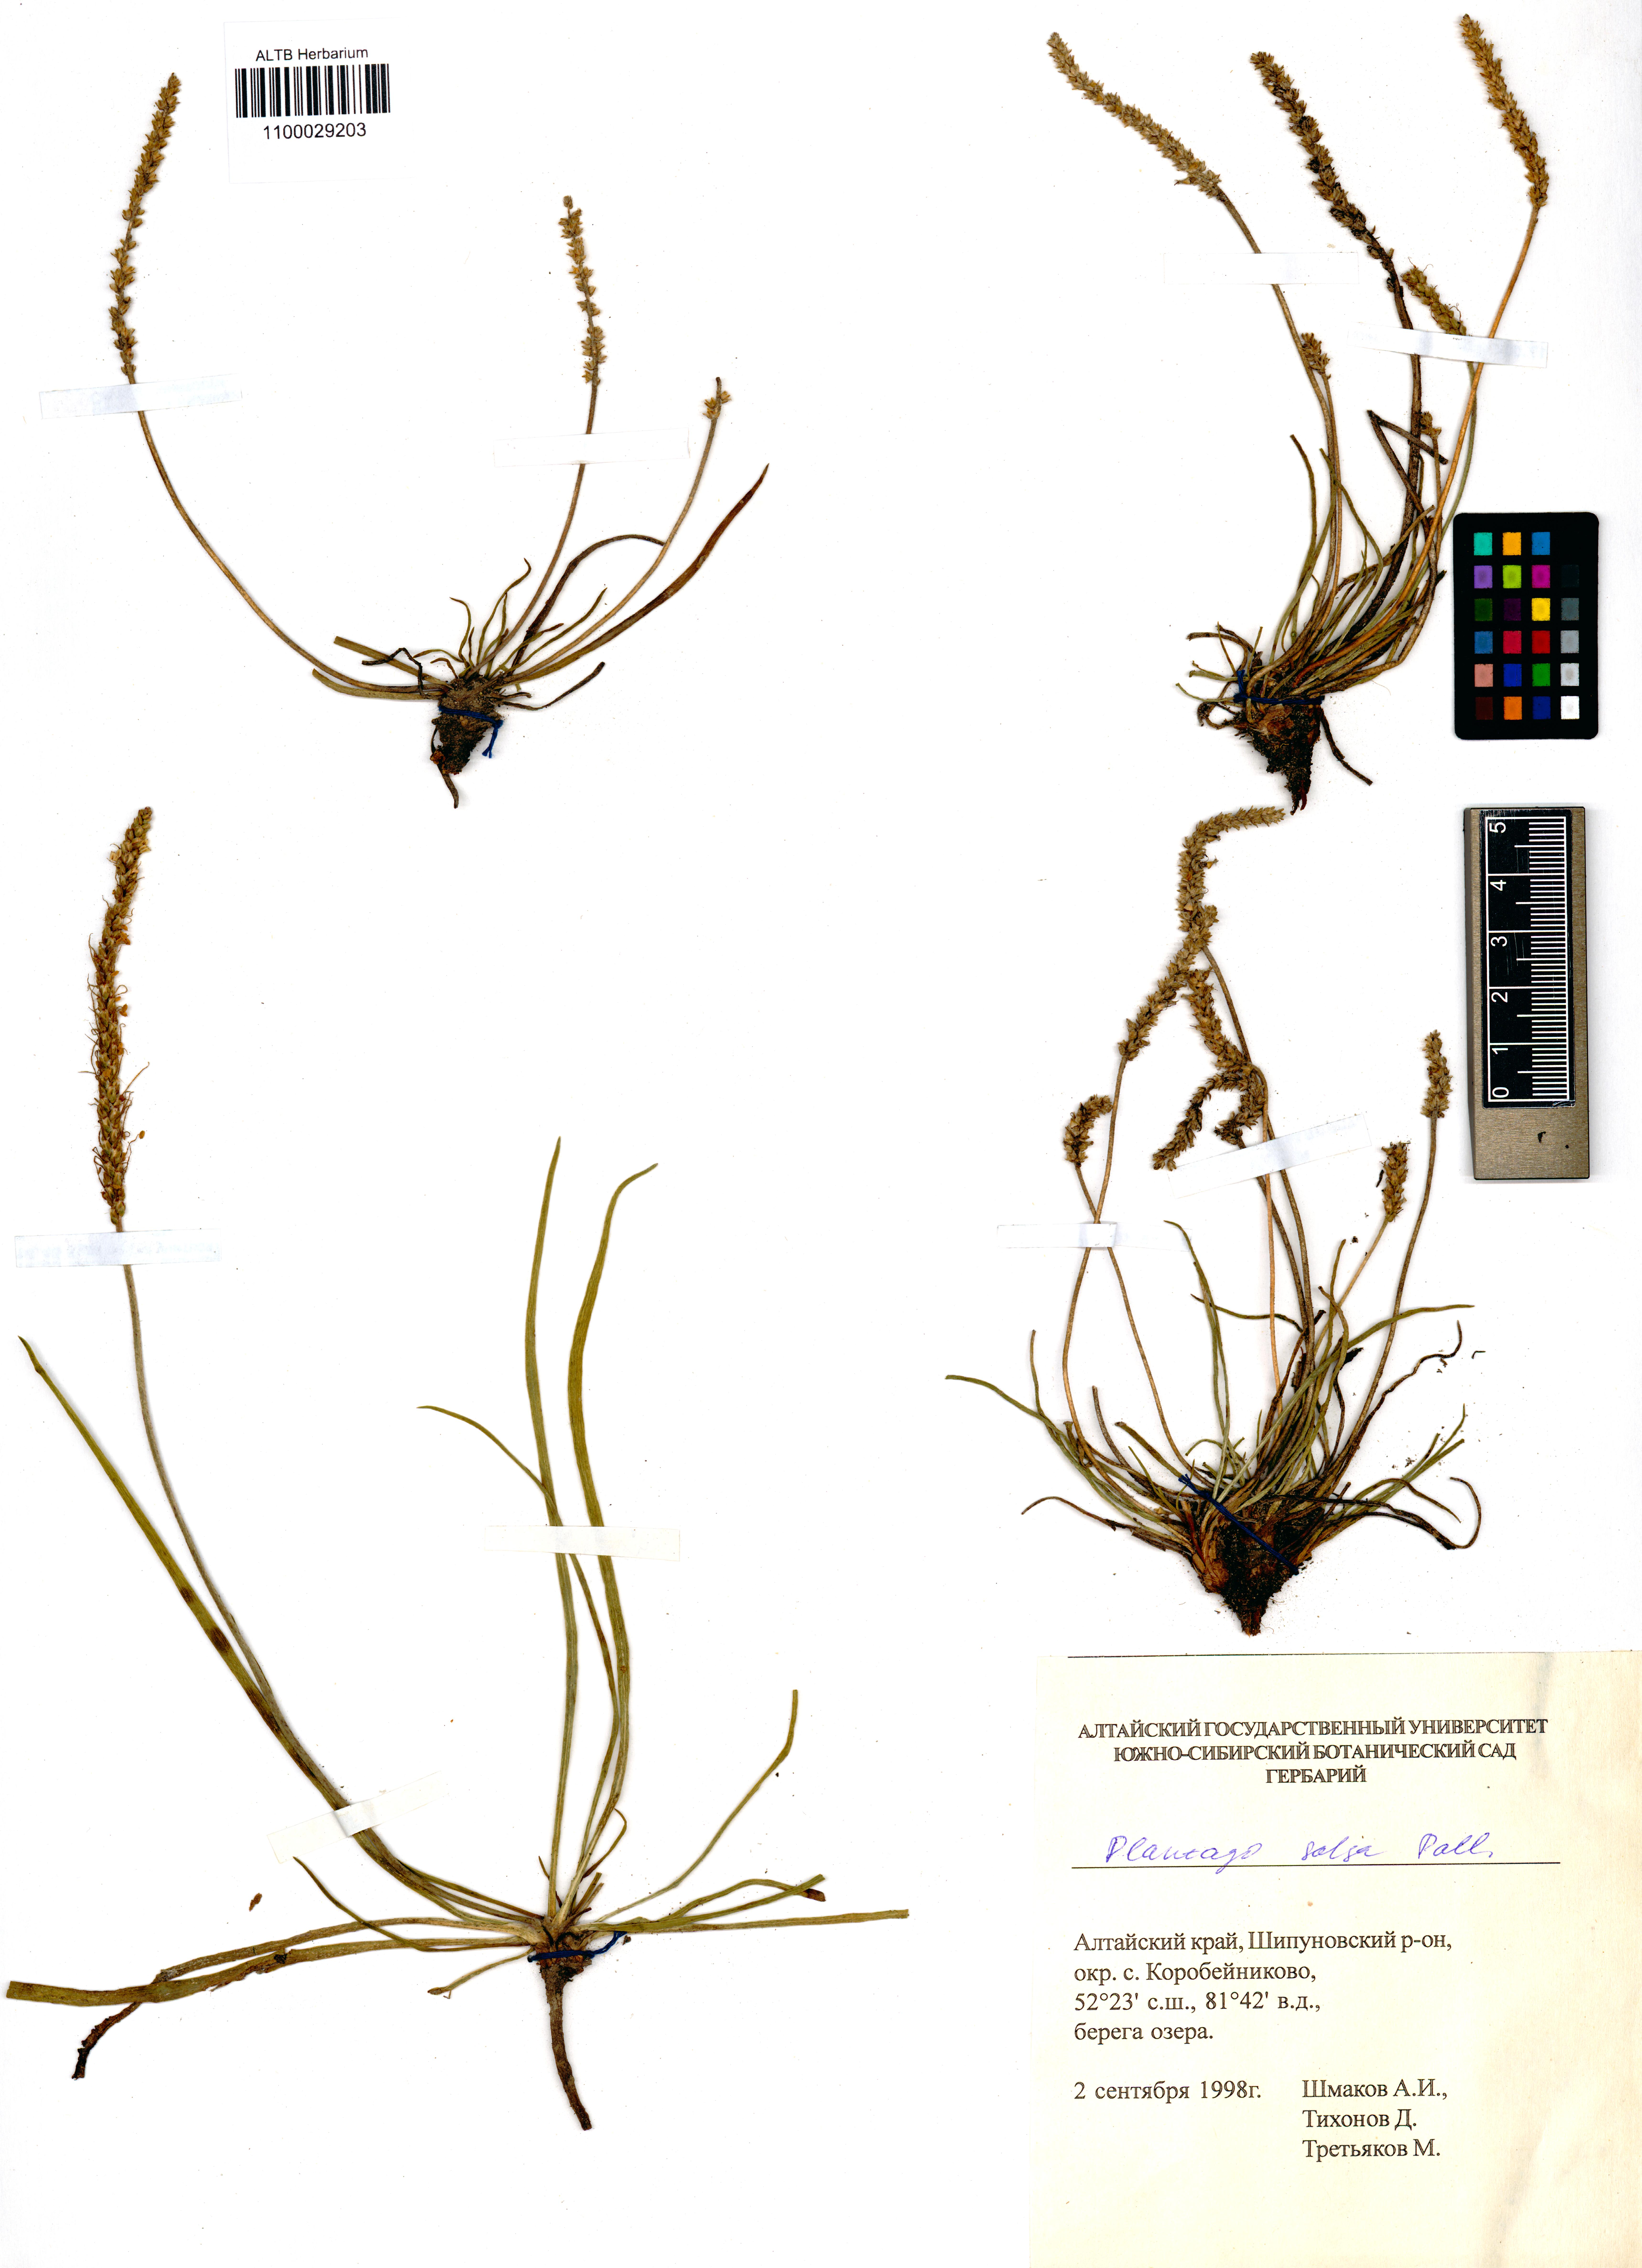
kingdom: Plantae
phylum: Tracheophyta
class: Magnoliopsida
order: Lamiales
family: Plantaginaceae
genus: Plantago
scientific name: Plantago salsa
